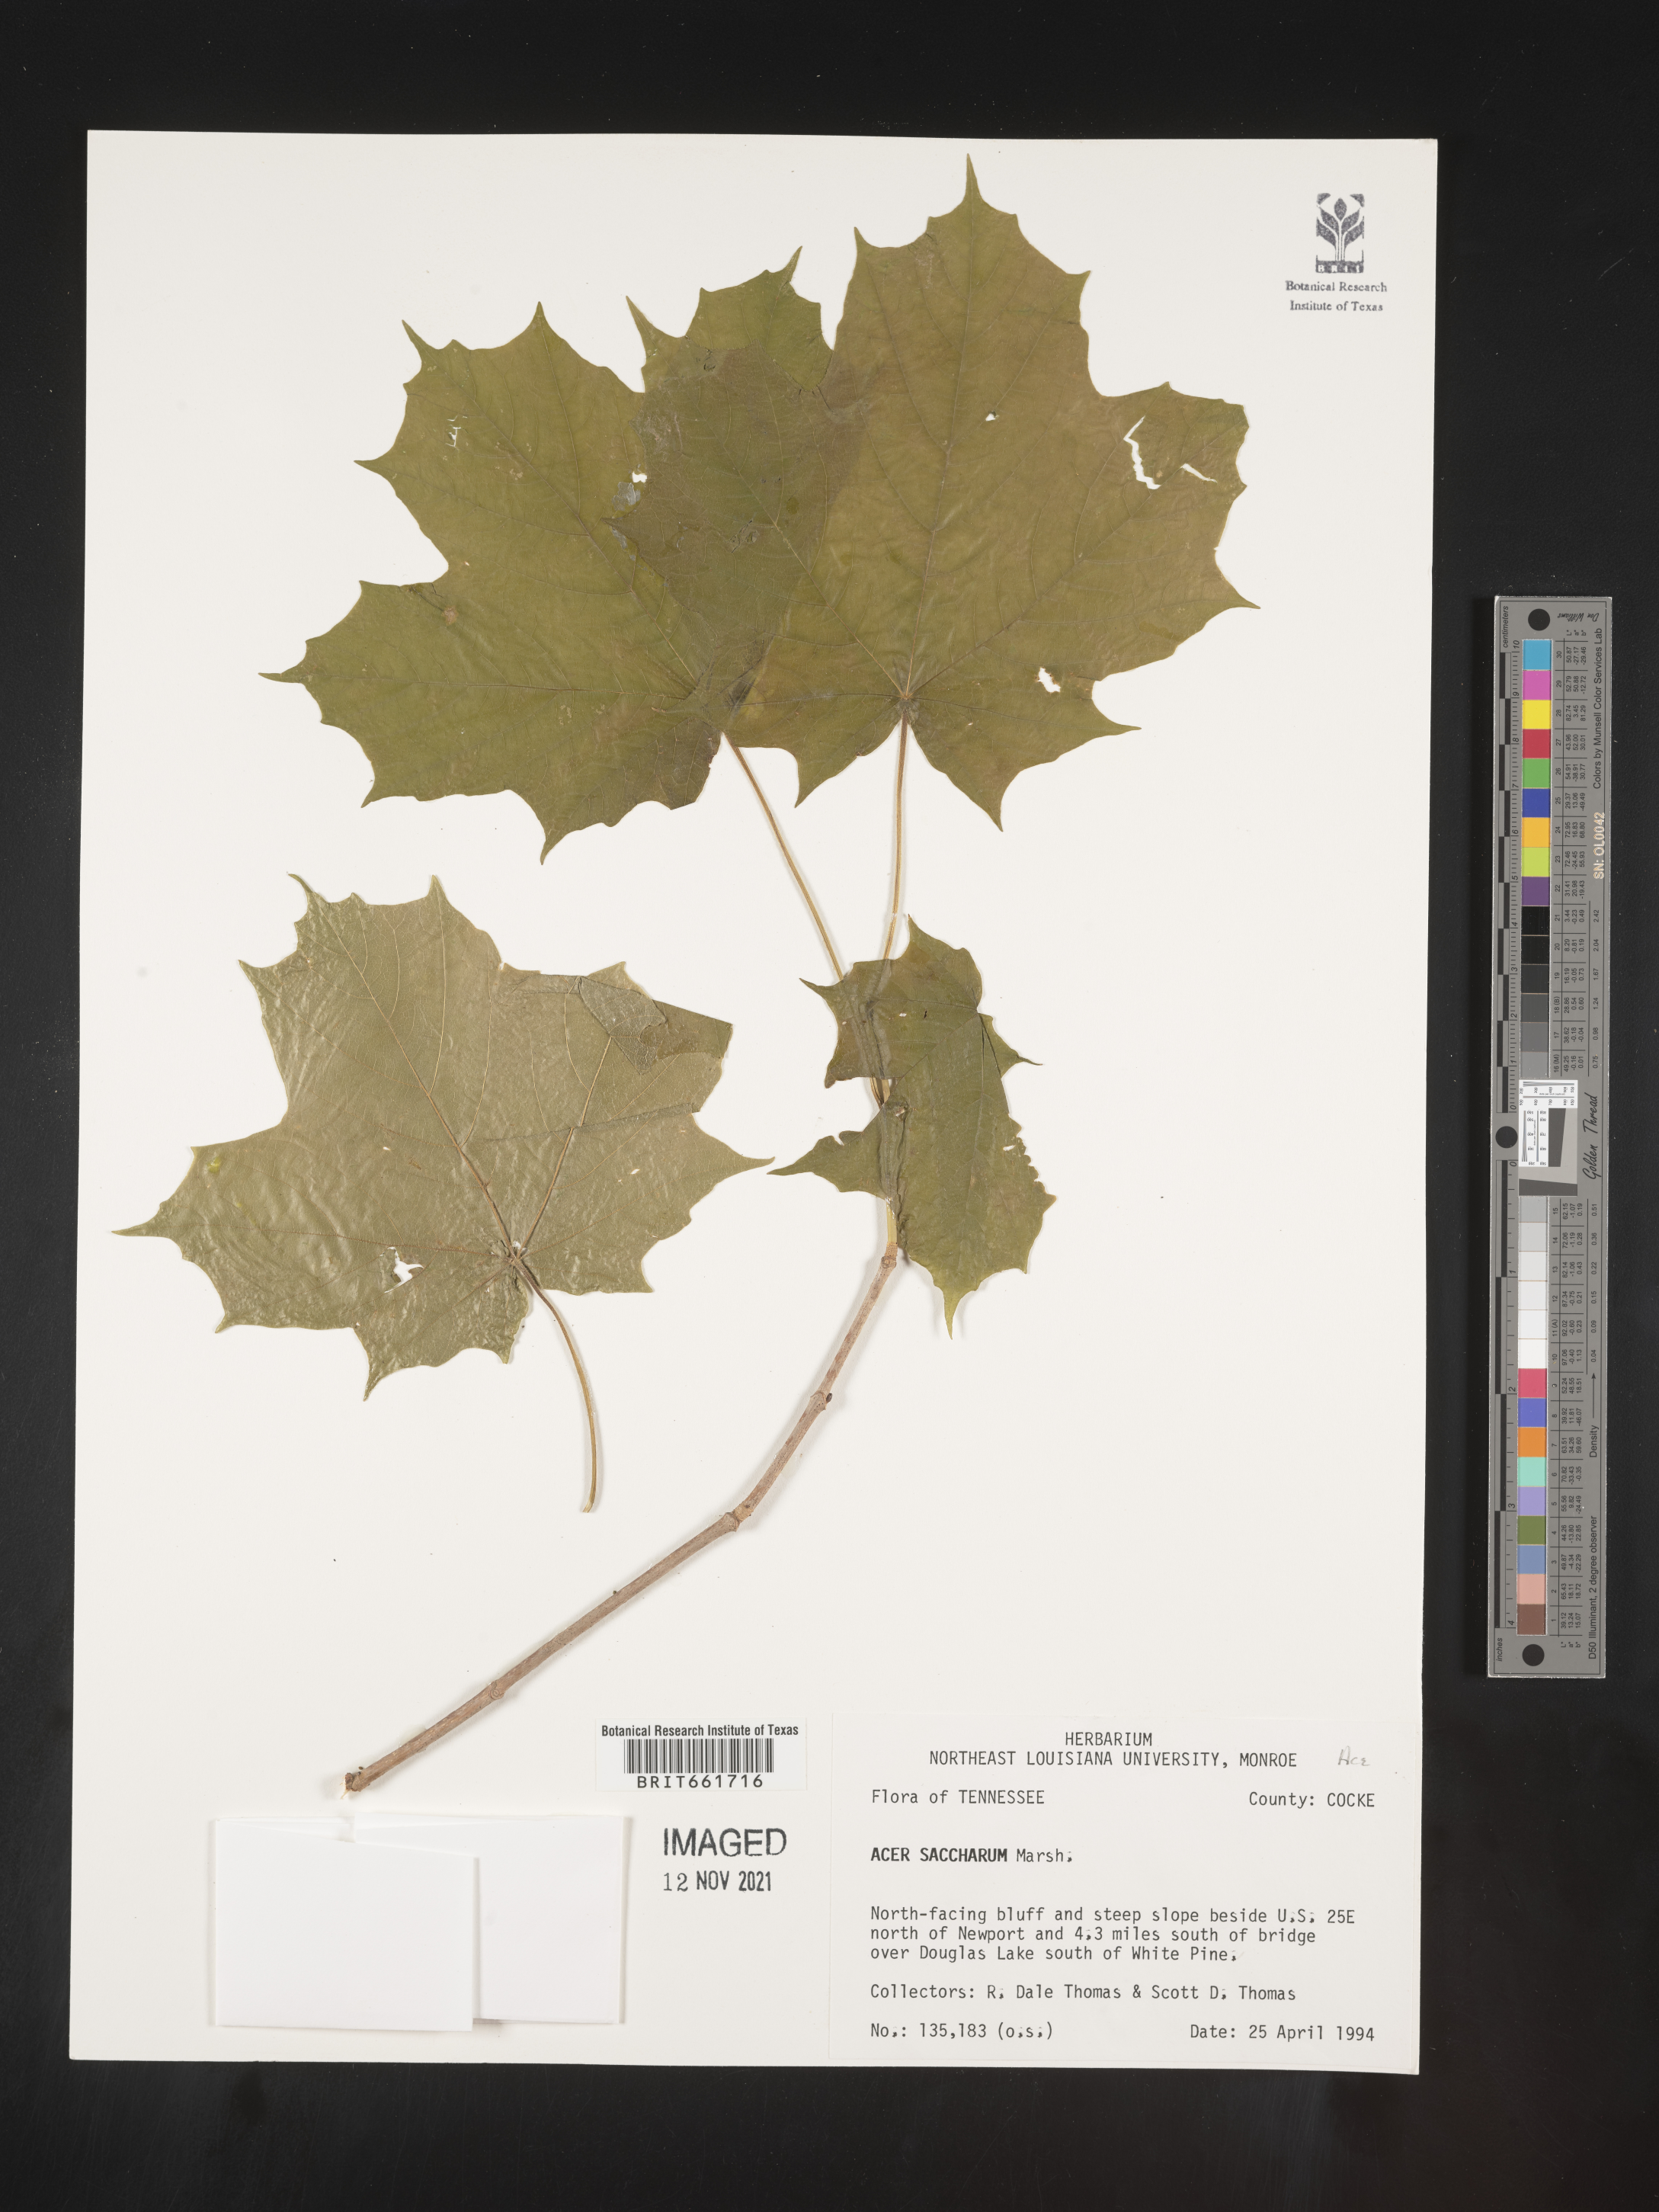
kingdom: Plantae
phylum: Tracheophyta
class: Magnoliopsida
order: Sapindales
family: Sapindaceae
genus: Acer
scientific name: Acer saccharinum
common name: Silver maple
